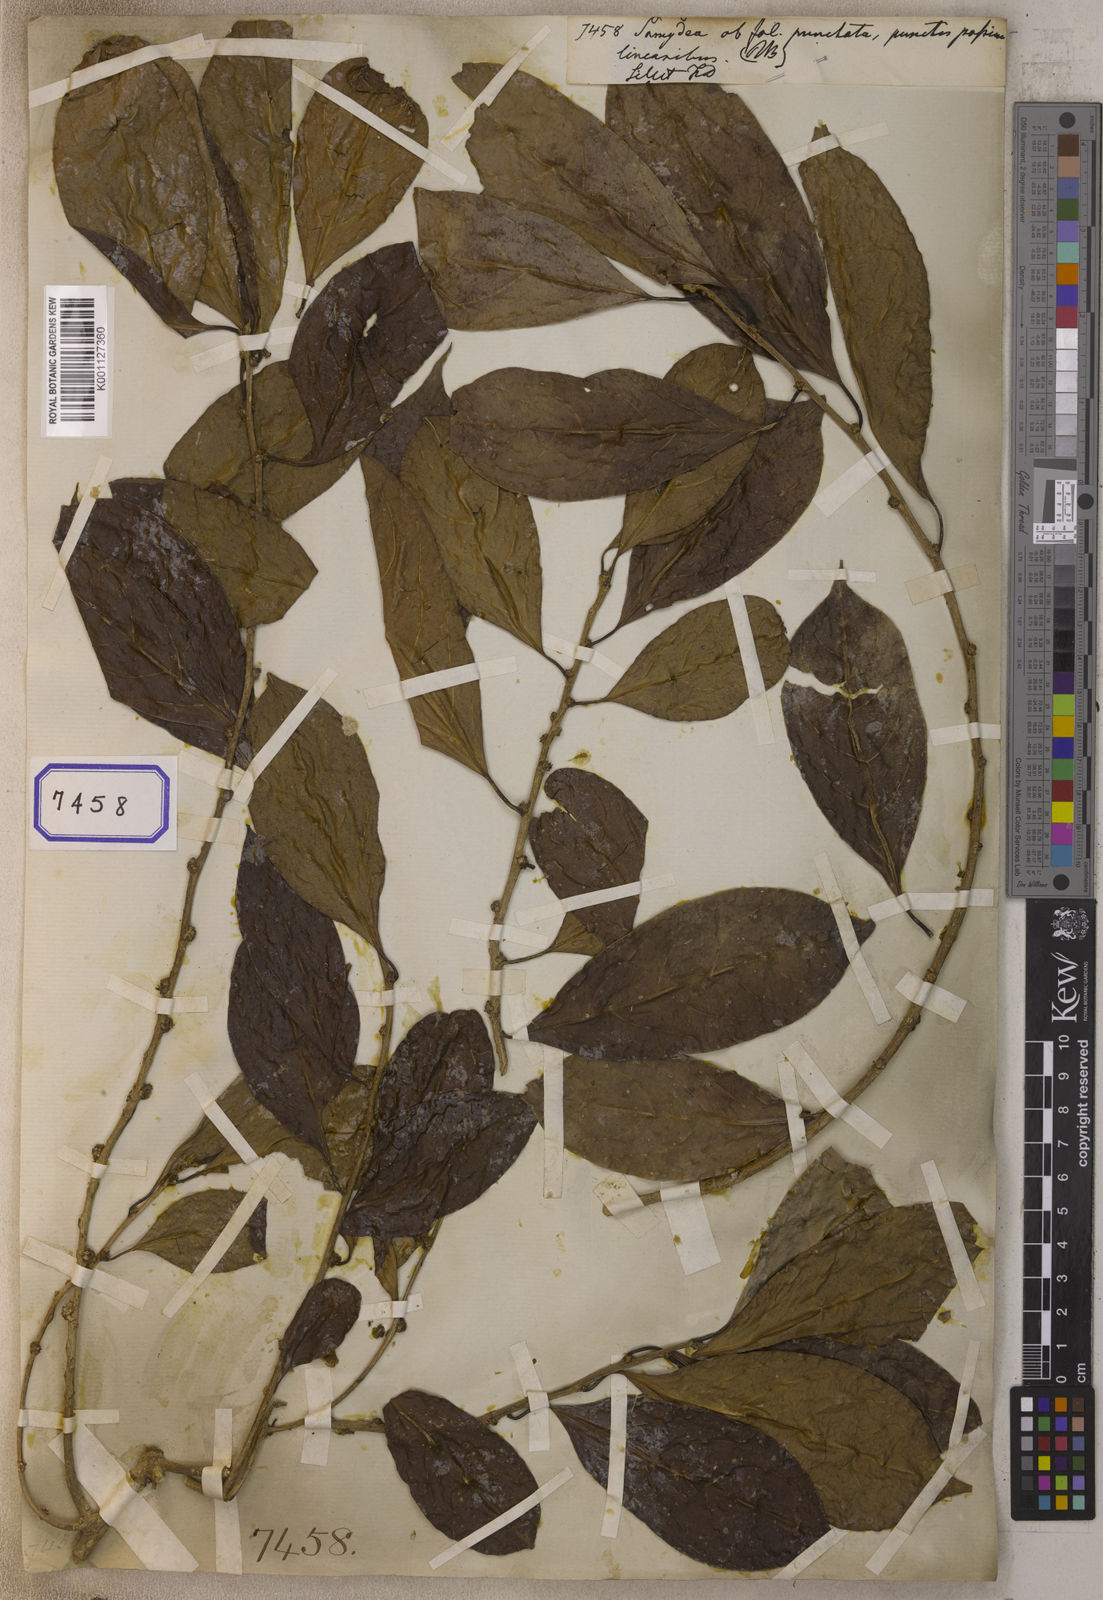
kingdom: Plantae
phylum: Tracheophyta
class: Magnoliopsida
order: Sapindales
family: Meliaceae
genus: Guarea
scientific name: Guarea
